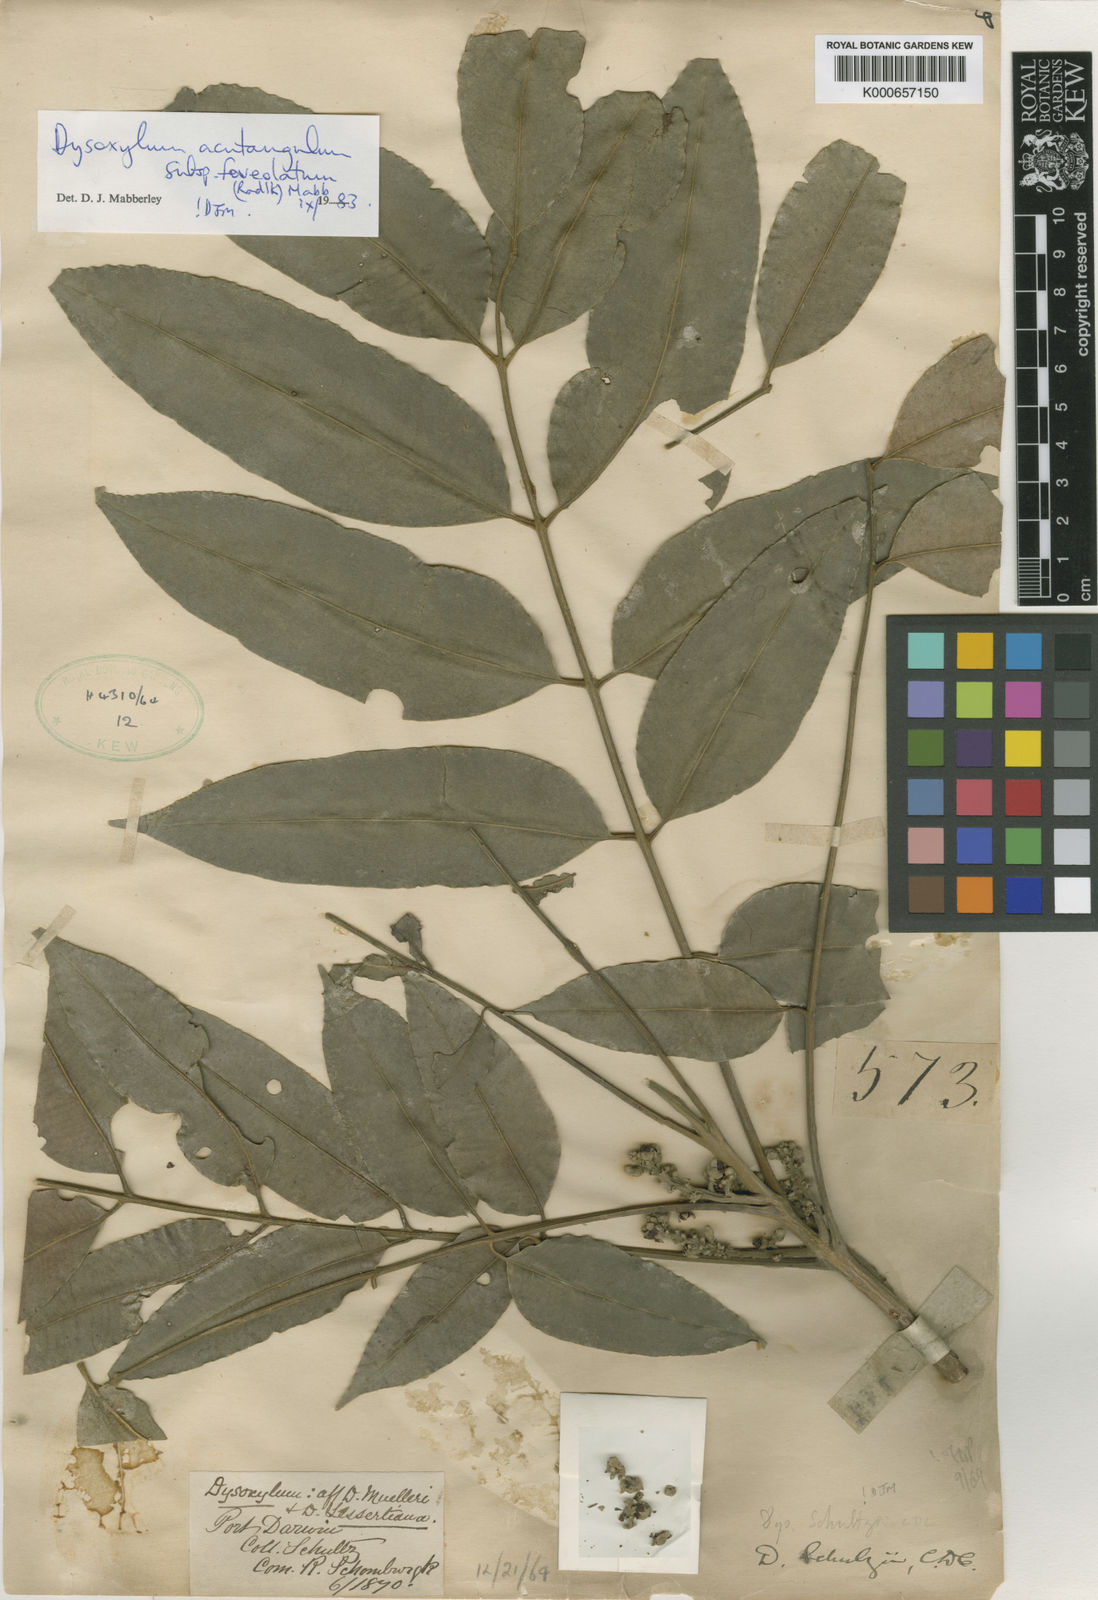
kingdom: Plantae
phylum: Tracheophyta
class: Magnoliopsida
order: Sapindales
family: Meliaceae
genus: Dysoxylum
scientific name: Dysoxylum acutangulum
